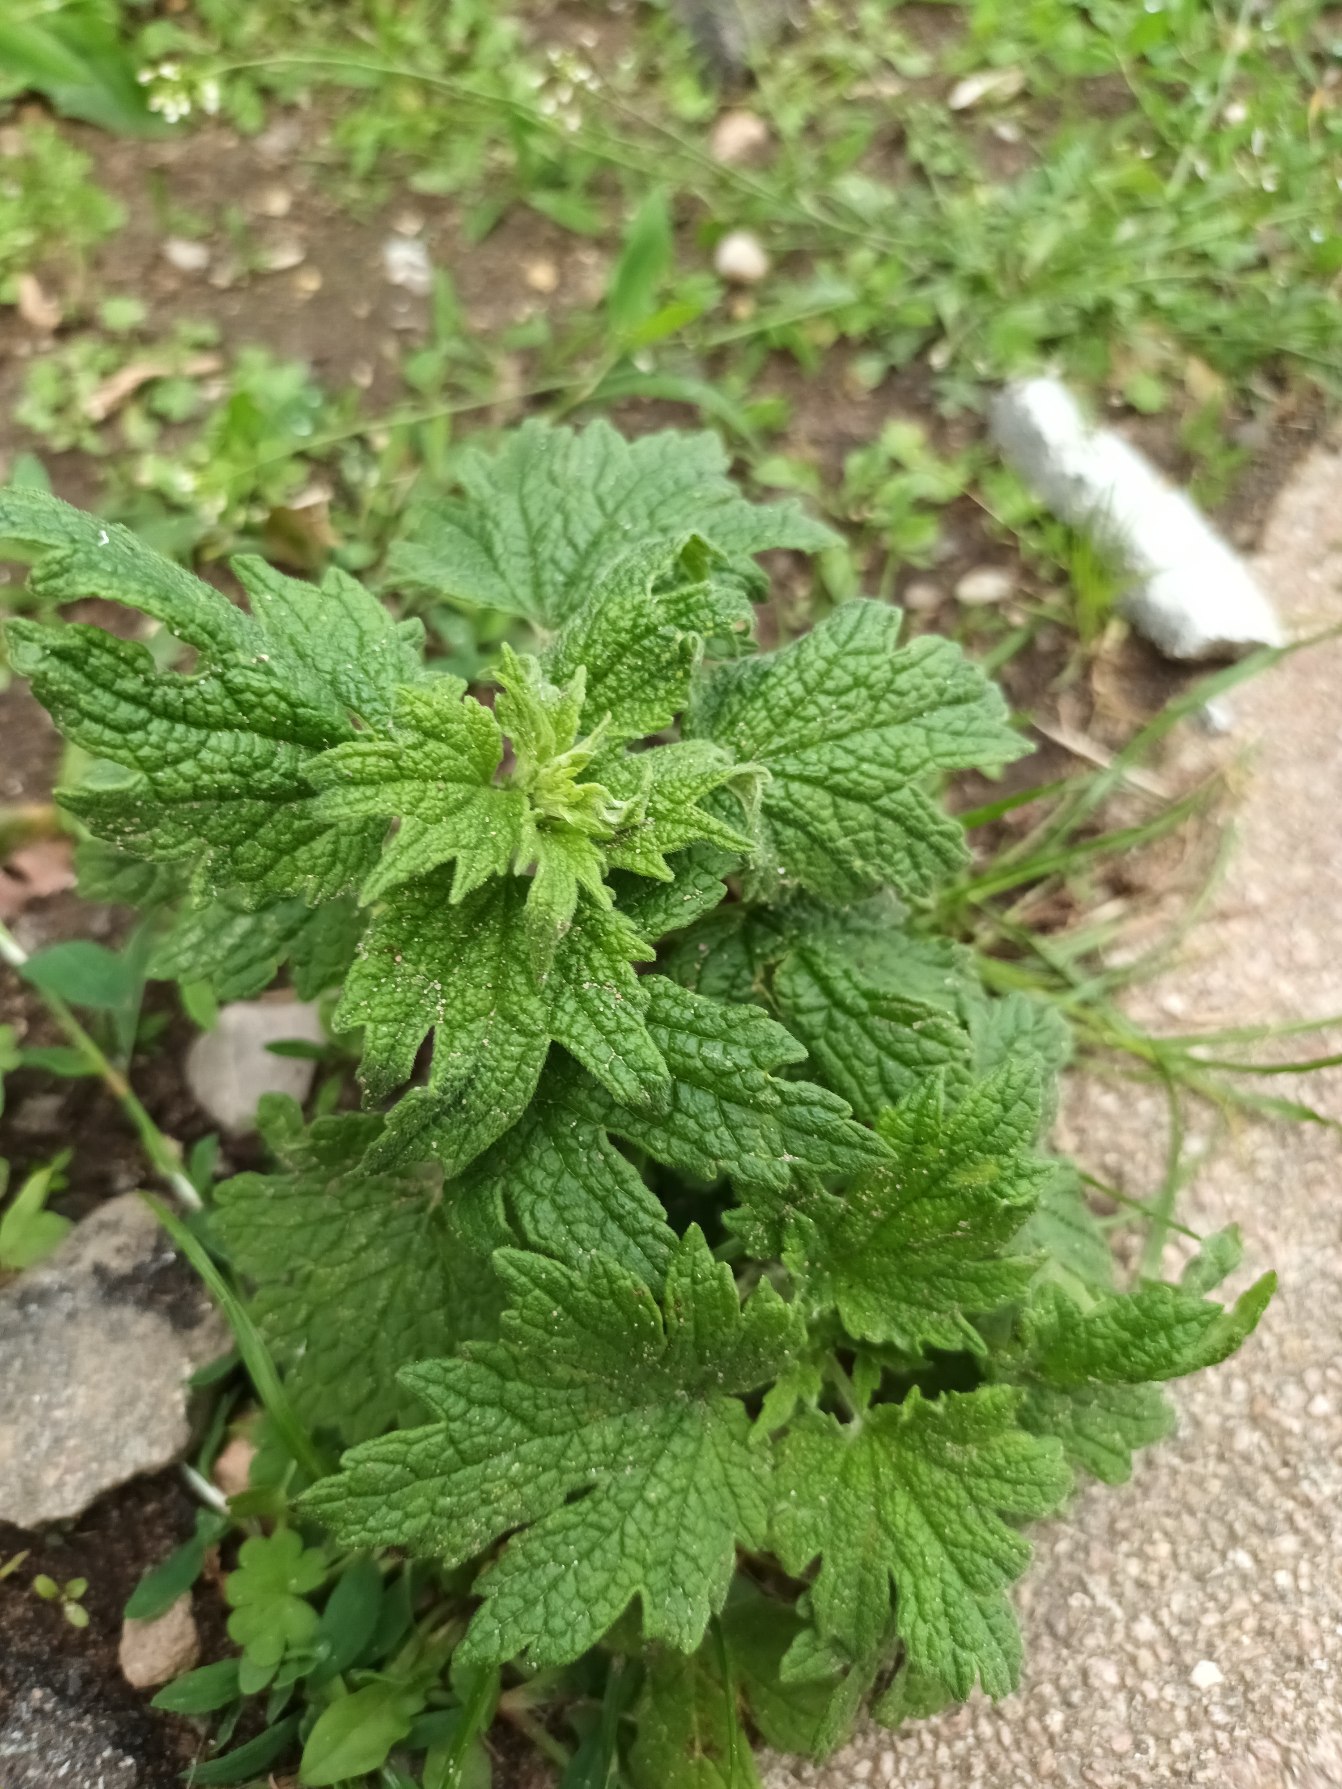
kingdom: Plantae
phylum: Tracheophyta
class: Magnoliopsida
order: Lamiales
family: Lamiaceae
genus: Leonurus
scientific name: Leonurus cardiaca
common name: Hjertespand
